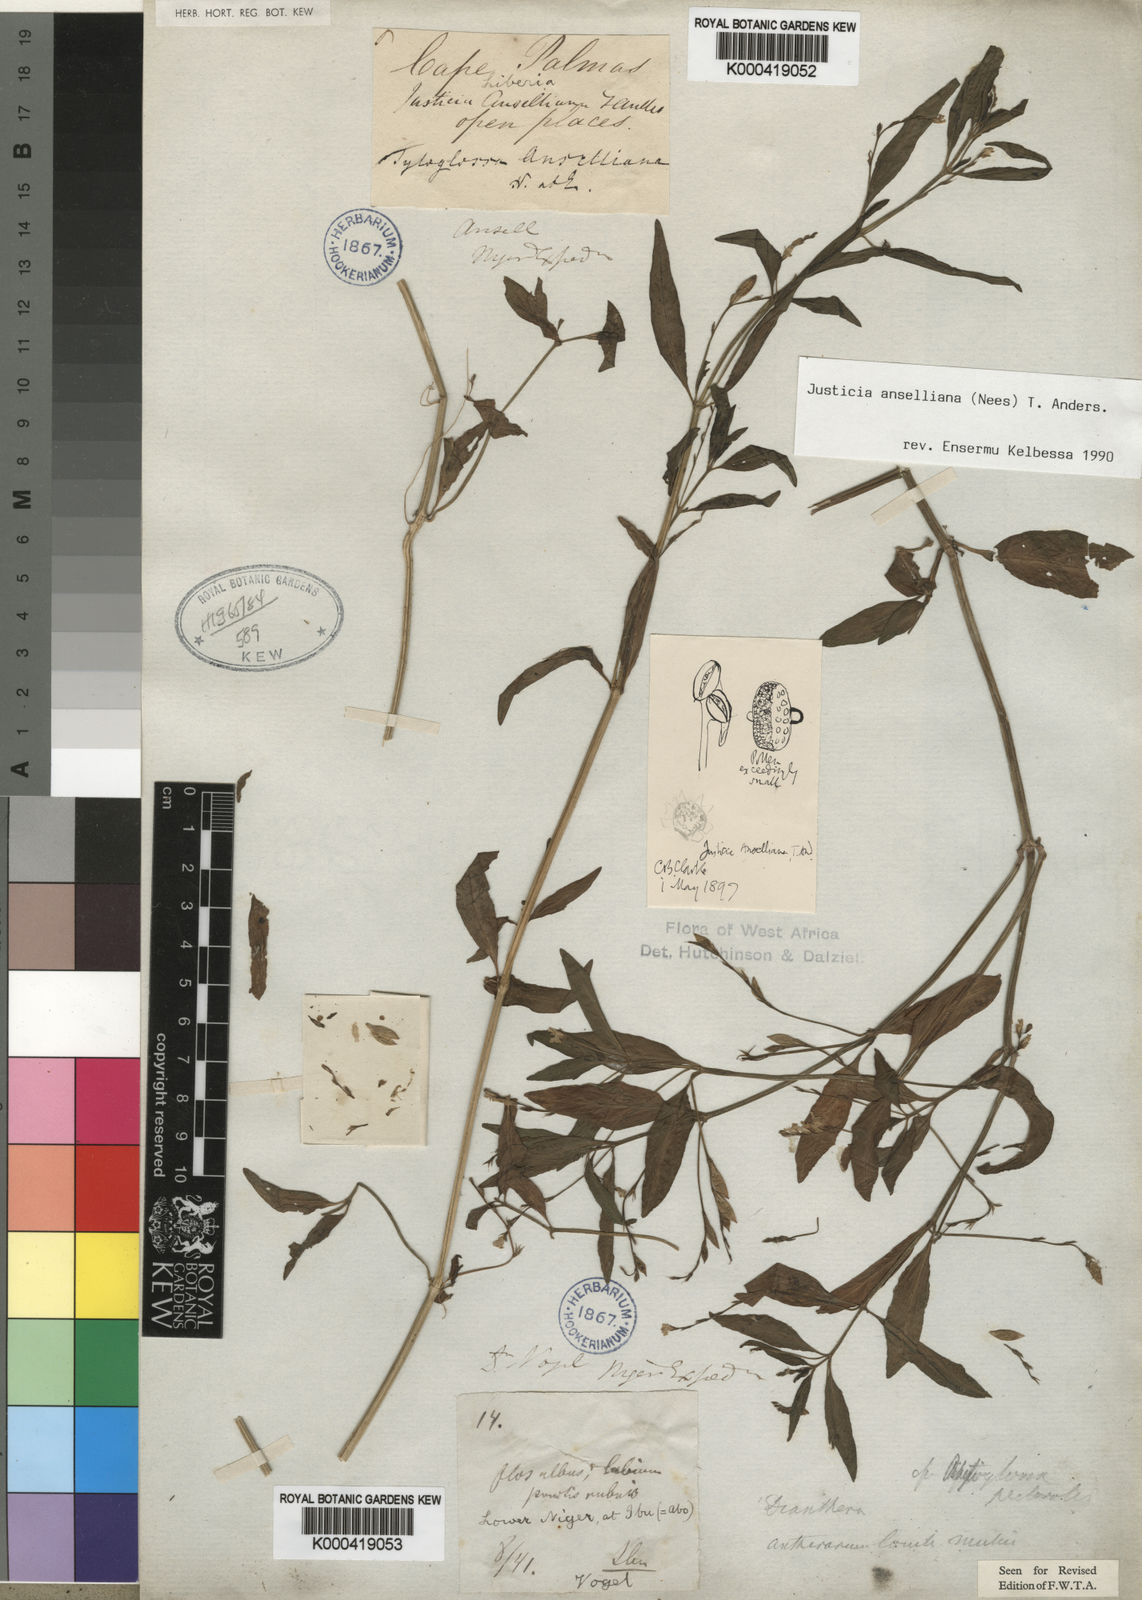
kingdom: Plantae
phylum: Tracheophyta
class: Magnoliopsida
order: Lamiales
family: Acanthaceae
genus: Justicia
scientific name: Justicia anselliana
